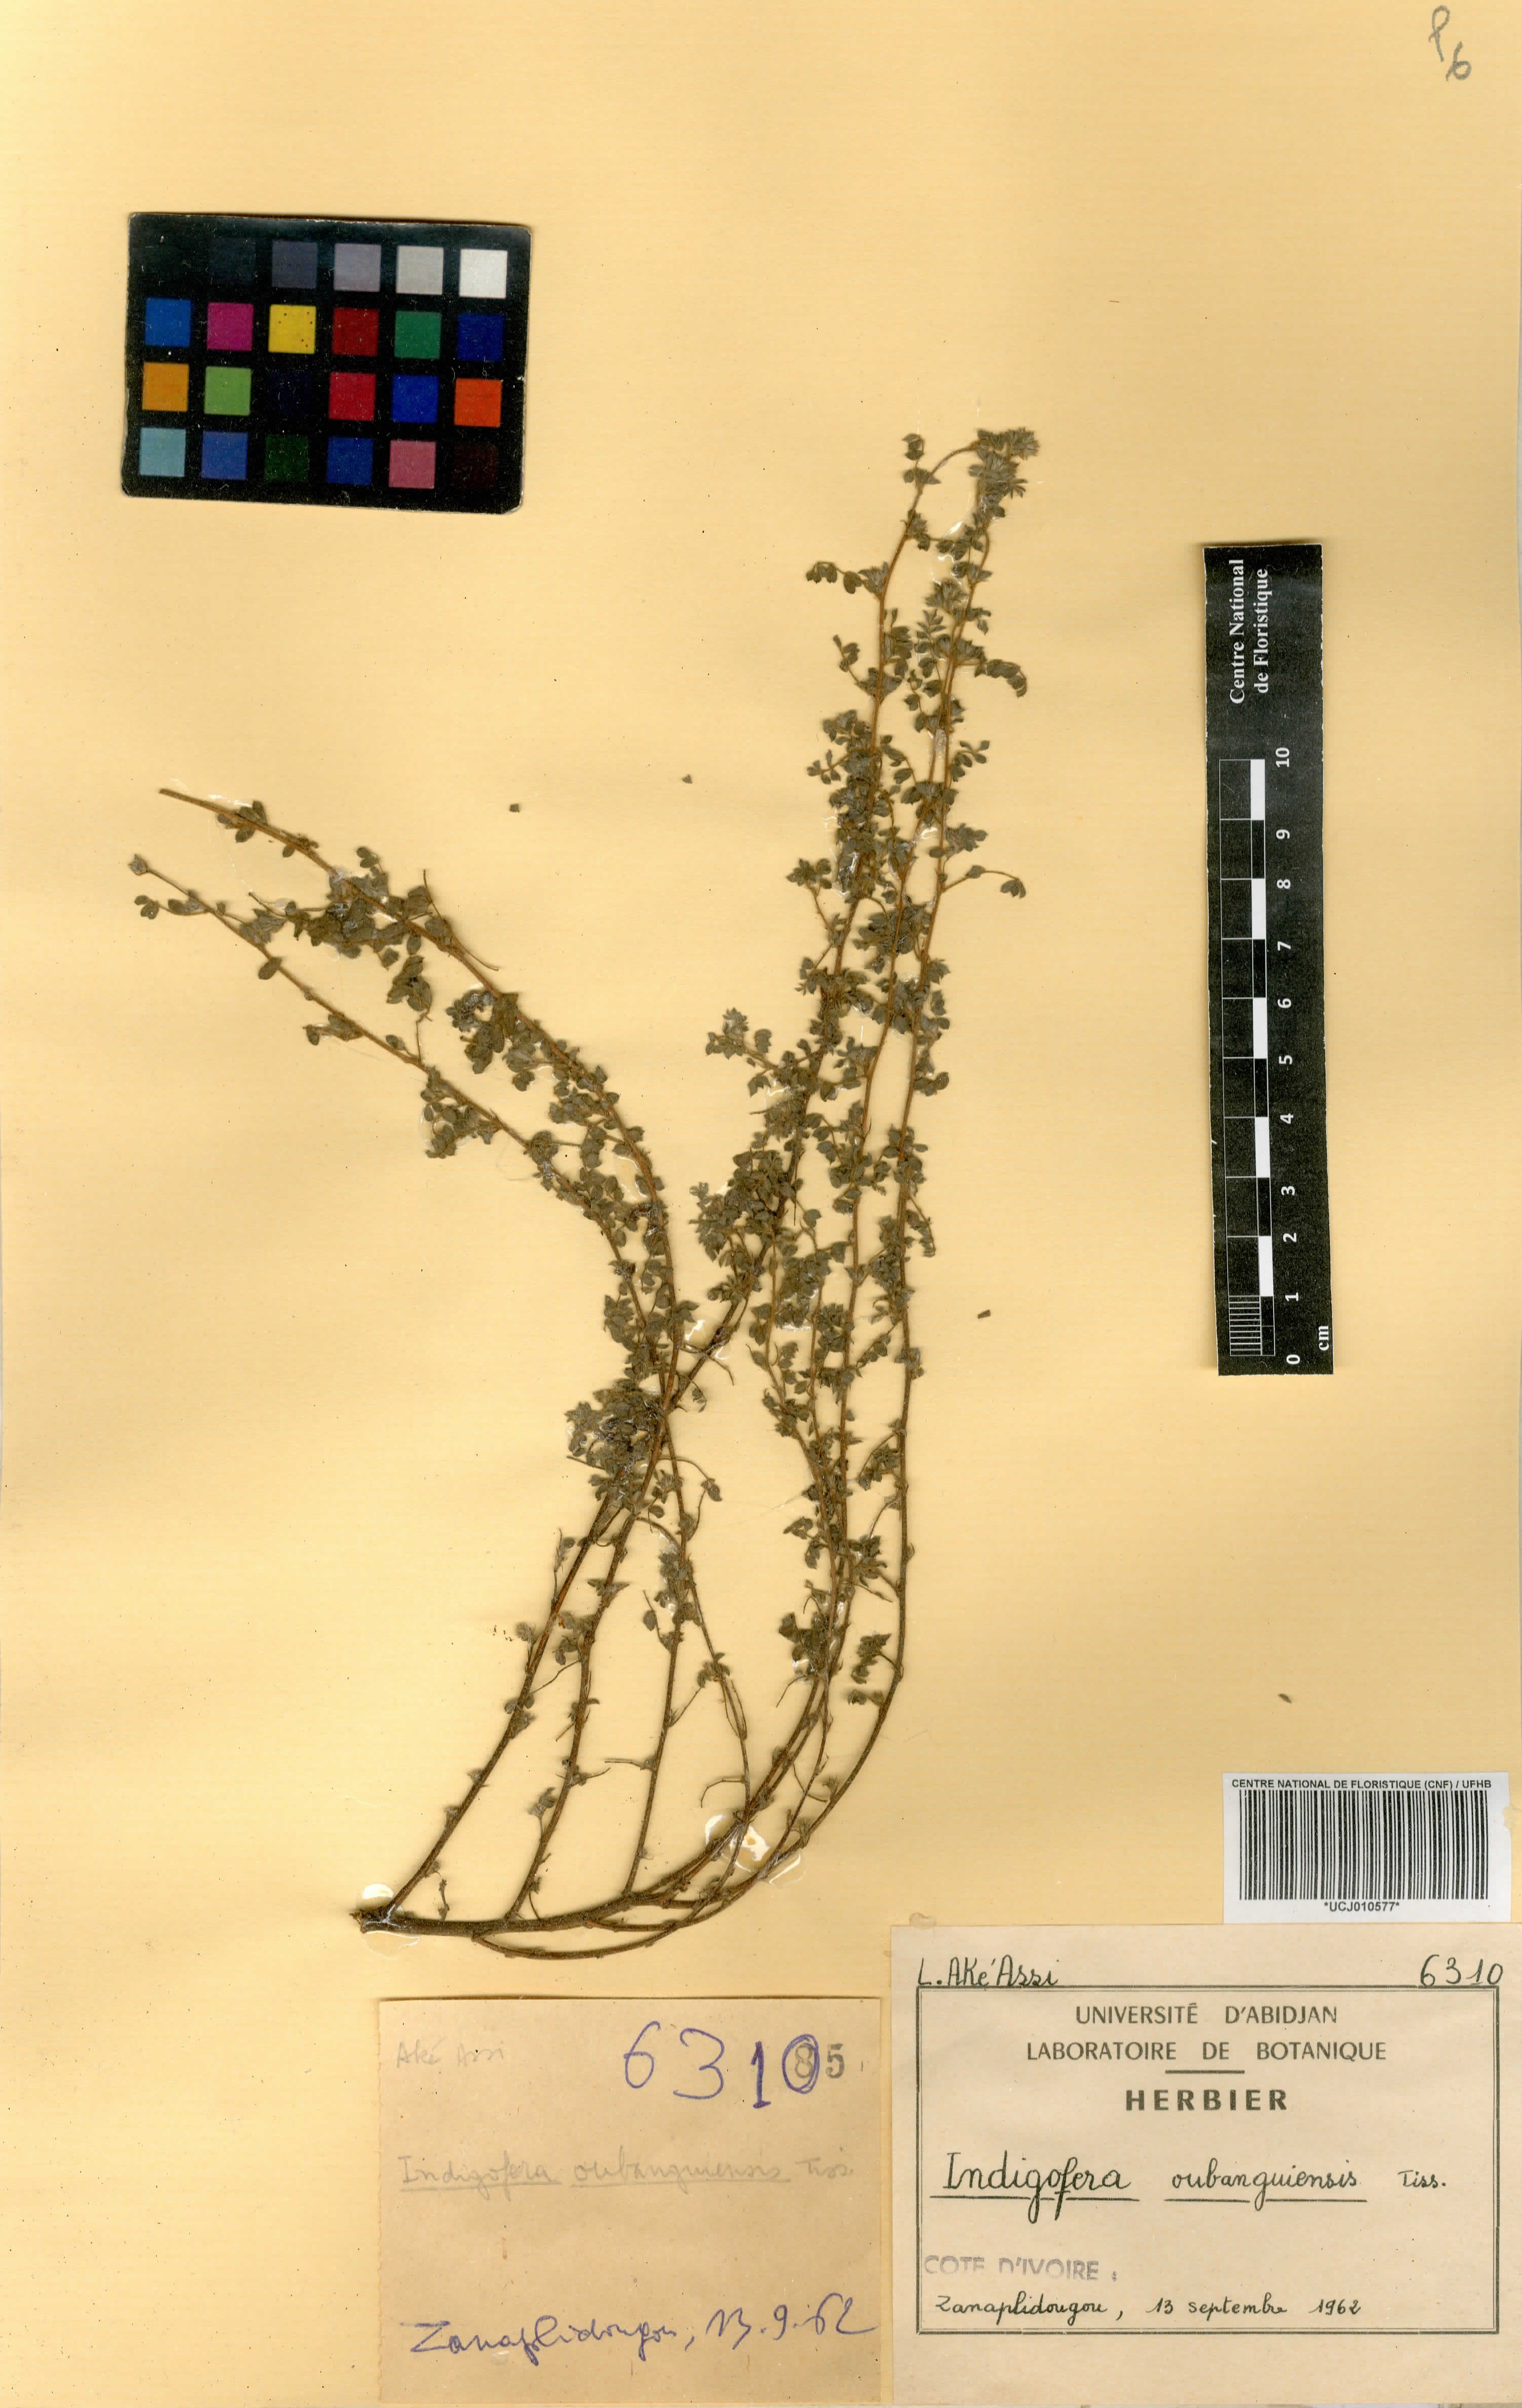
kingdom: Plantae
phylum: Tracheophyta
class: Magnoliopsida
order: Fabales
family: Fabaceae
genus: Indigofera
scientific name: Indigofera oubanguiensis
